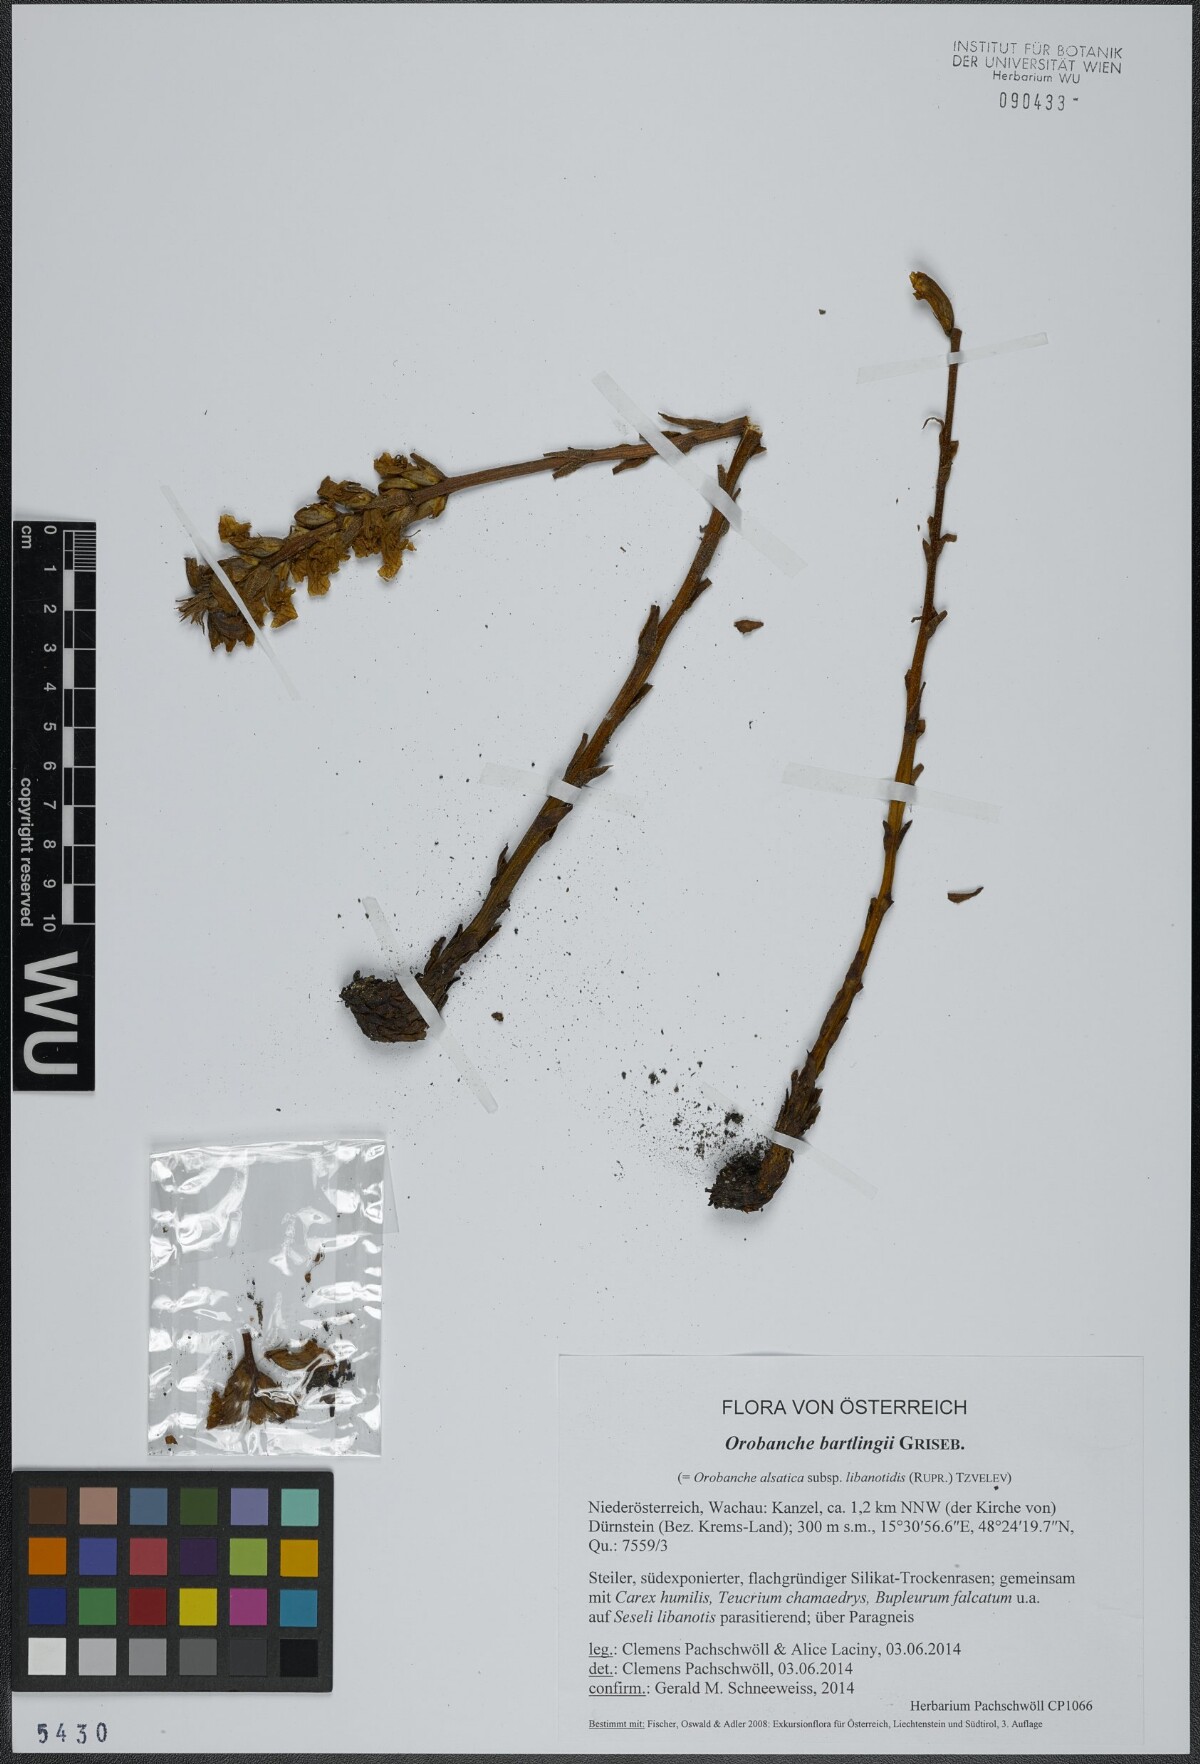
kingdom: Plantae
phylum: Tracheophyta
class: Magnoliopsida
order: Lamiales
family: Orobanchaceae
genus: Orobanche
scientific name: Orobanche alsatica
